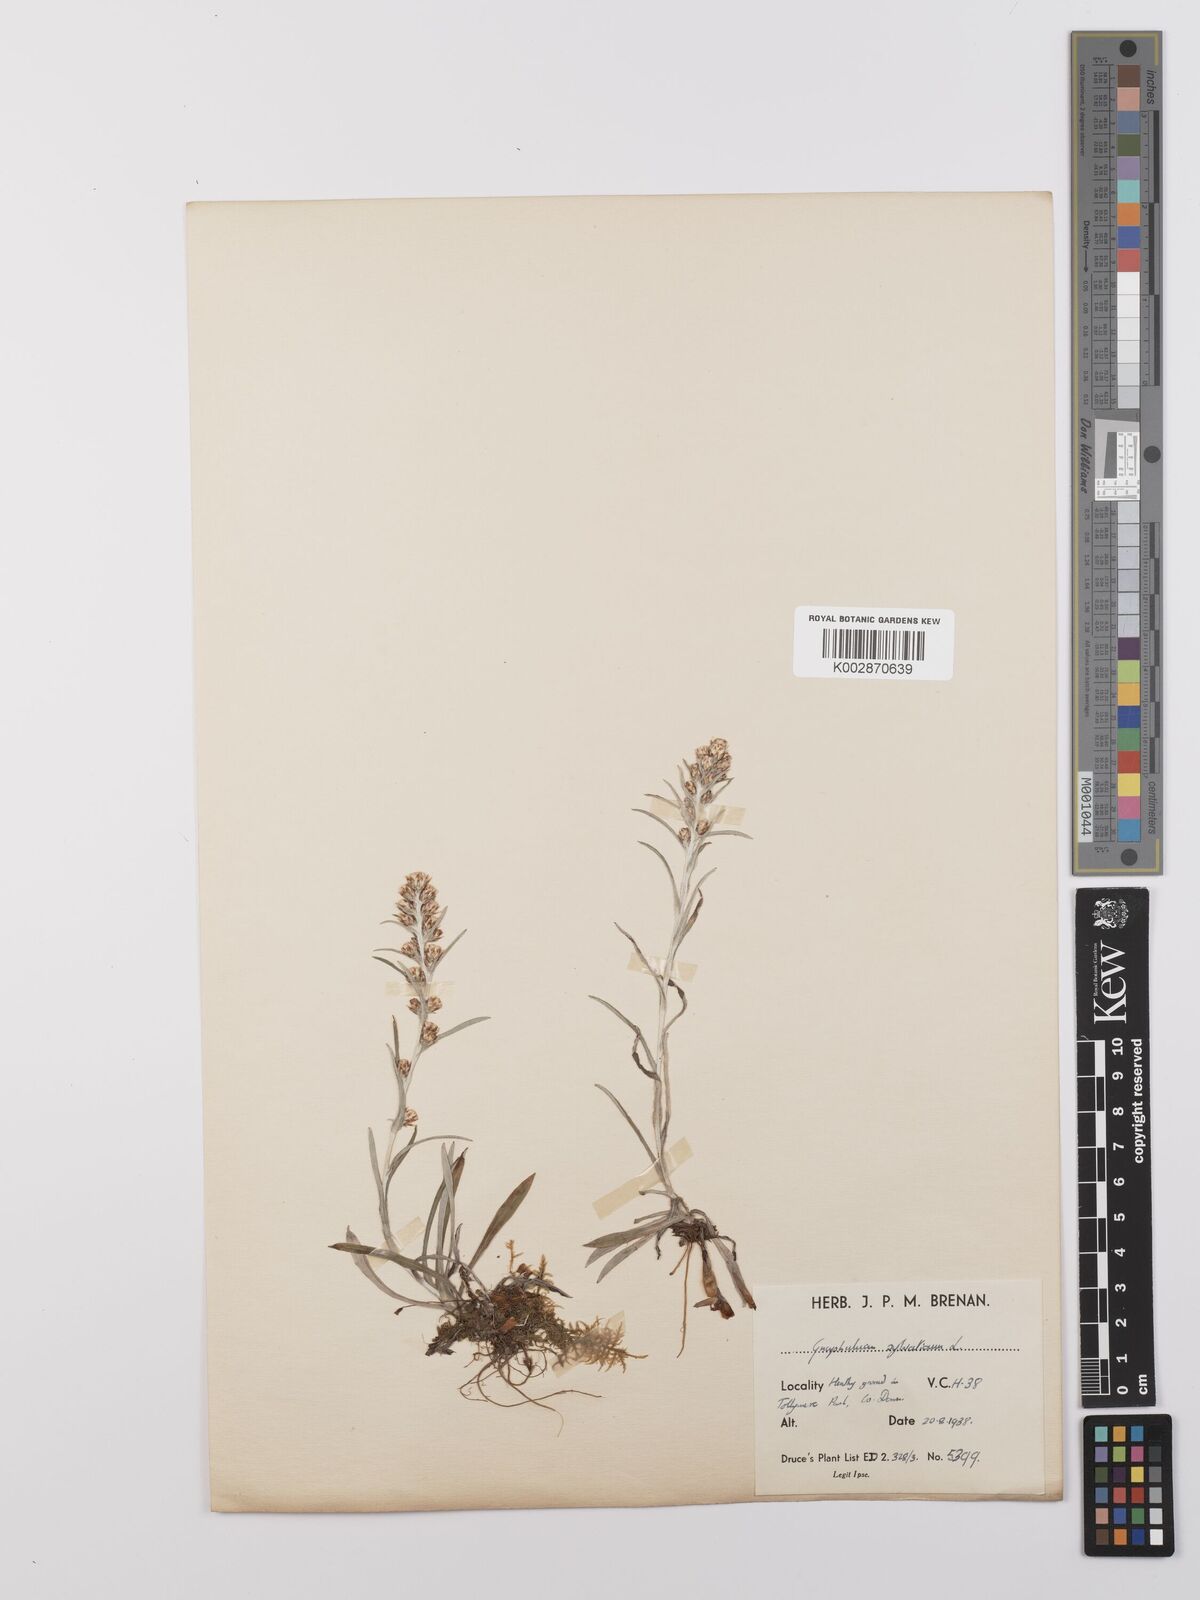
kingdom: Plantae
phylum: Tracheophyta
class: Magnoliopsida
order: Asterales
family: Asteraceae
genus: Omalotheca
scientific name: Omalotheca sylvatica
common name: Heath cudweed
